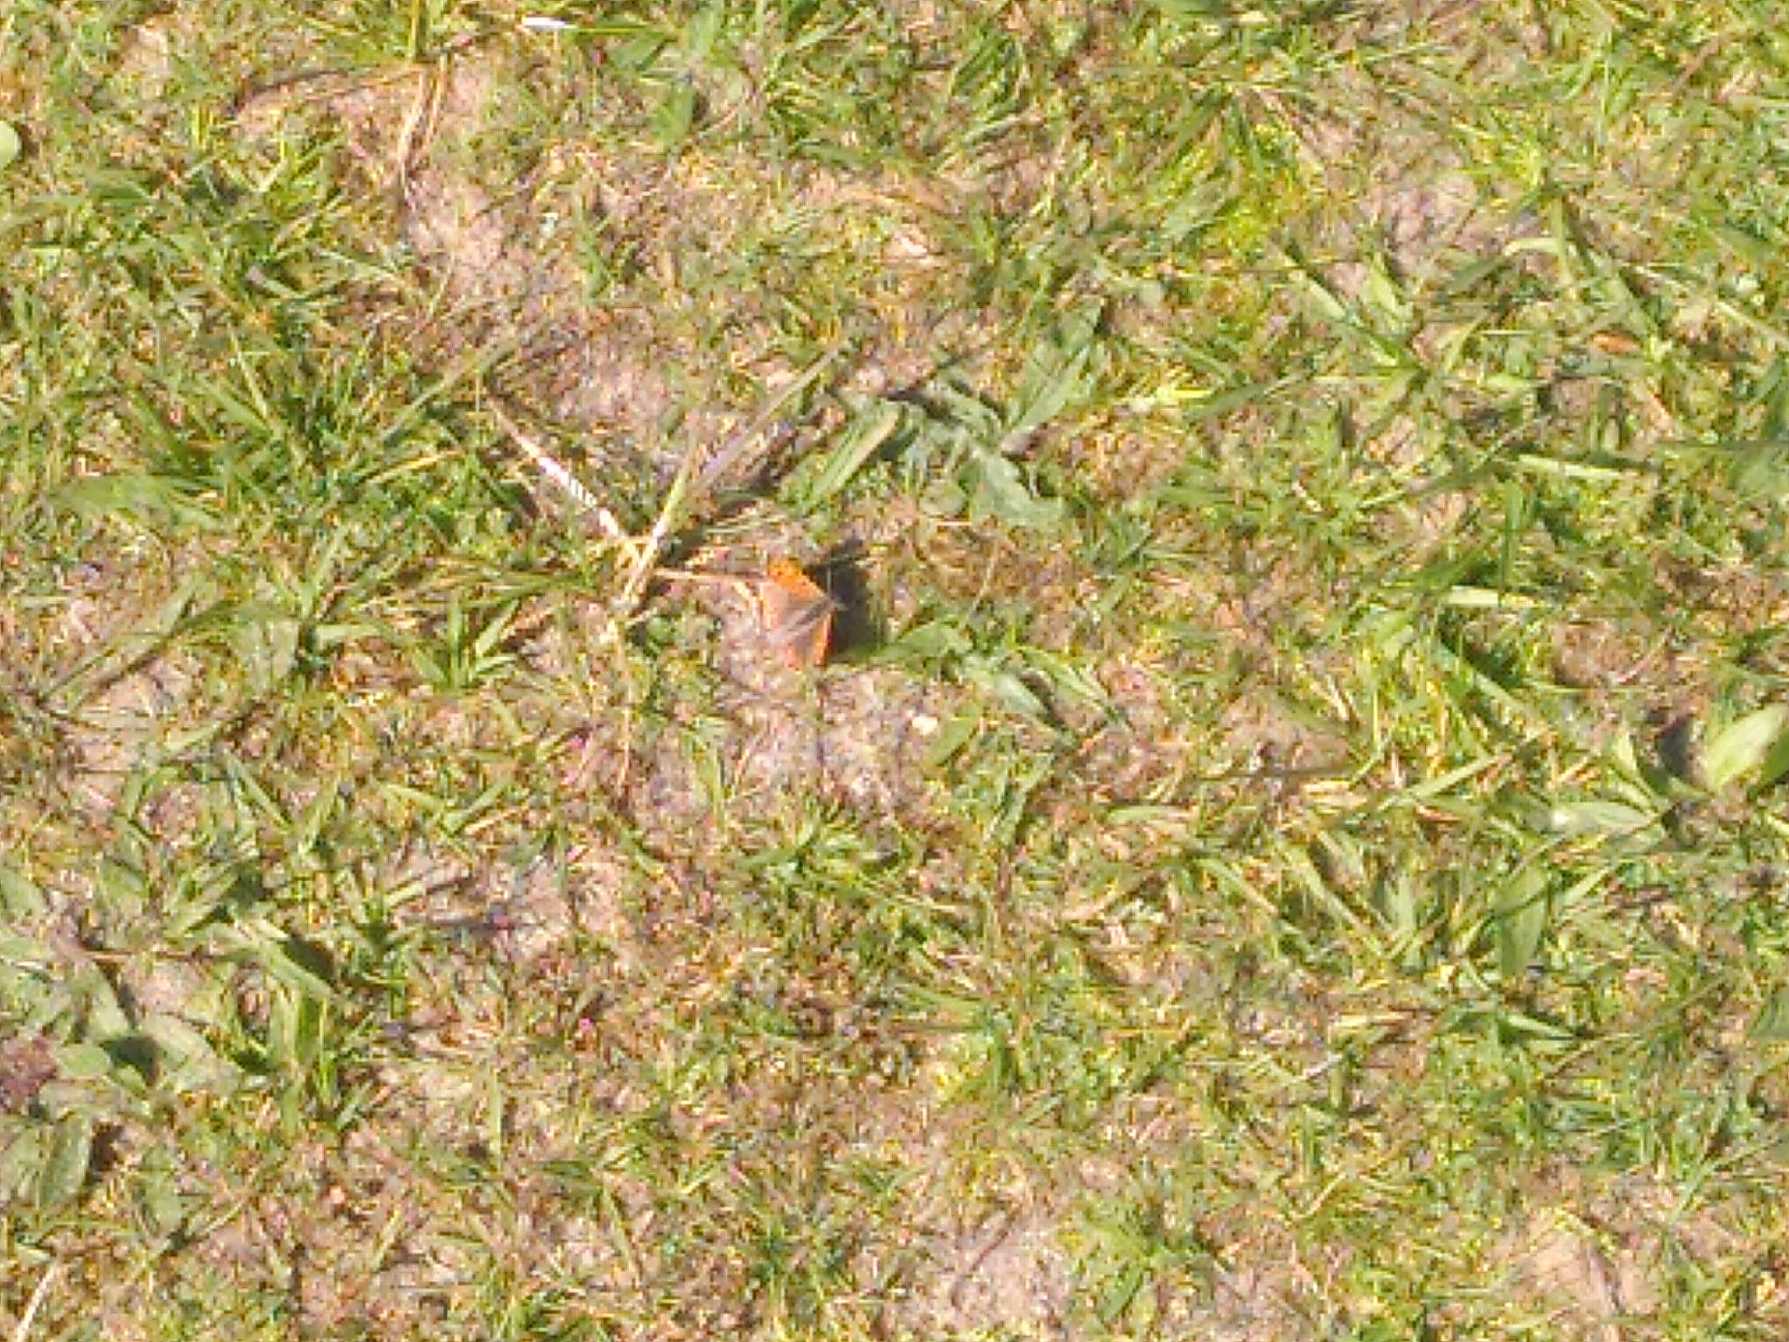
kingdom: Animalia
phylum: Arthropoda
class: Insecta
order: Lepidoptera
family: Lycaenidae
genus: Lycaena
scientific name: Lycaena phlaeas
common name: Lille ildfugl
